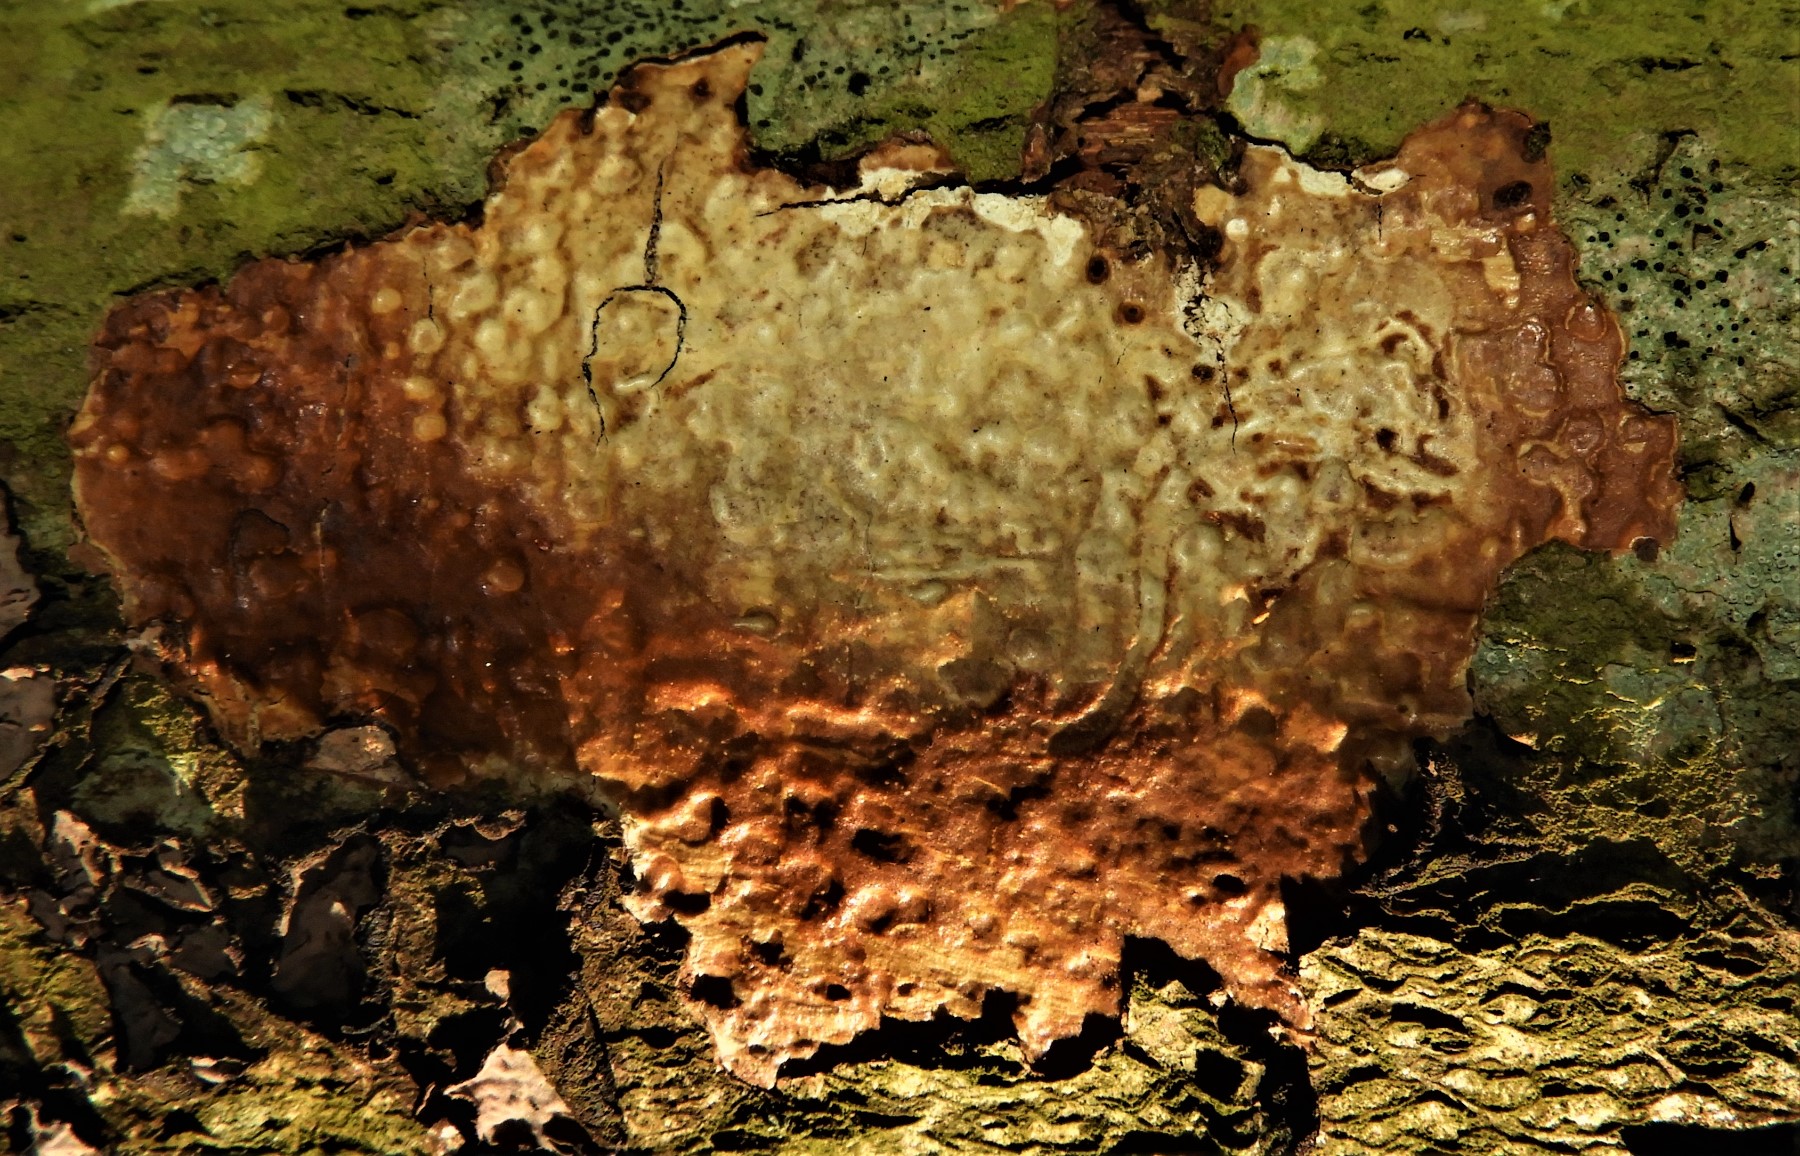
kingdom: Fungi
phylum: Basidiomycota
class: Agaricomycetes
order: Corticiales
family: Vuilleminiaceae
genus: Vuilleminia
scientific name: Vuilleminia comedens
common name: almindelig barksprænger
